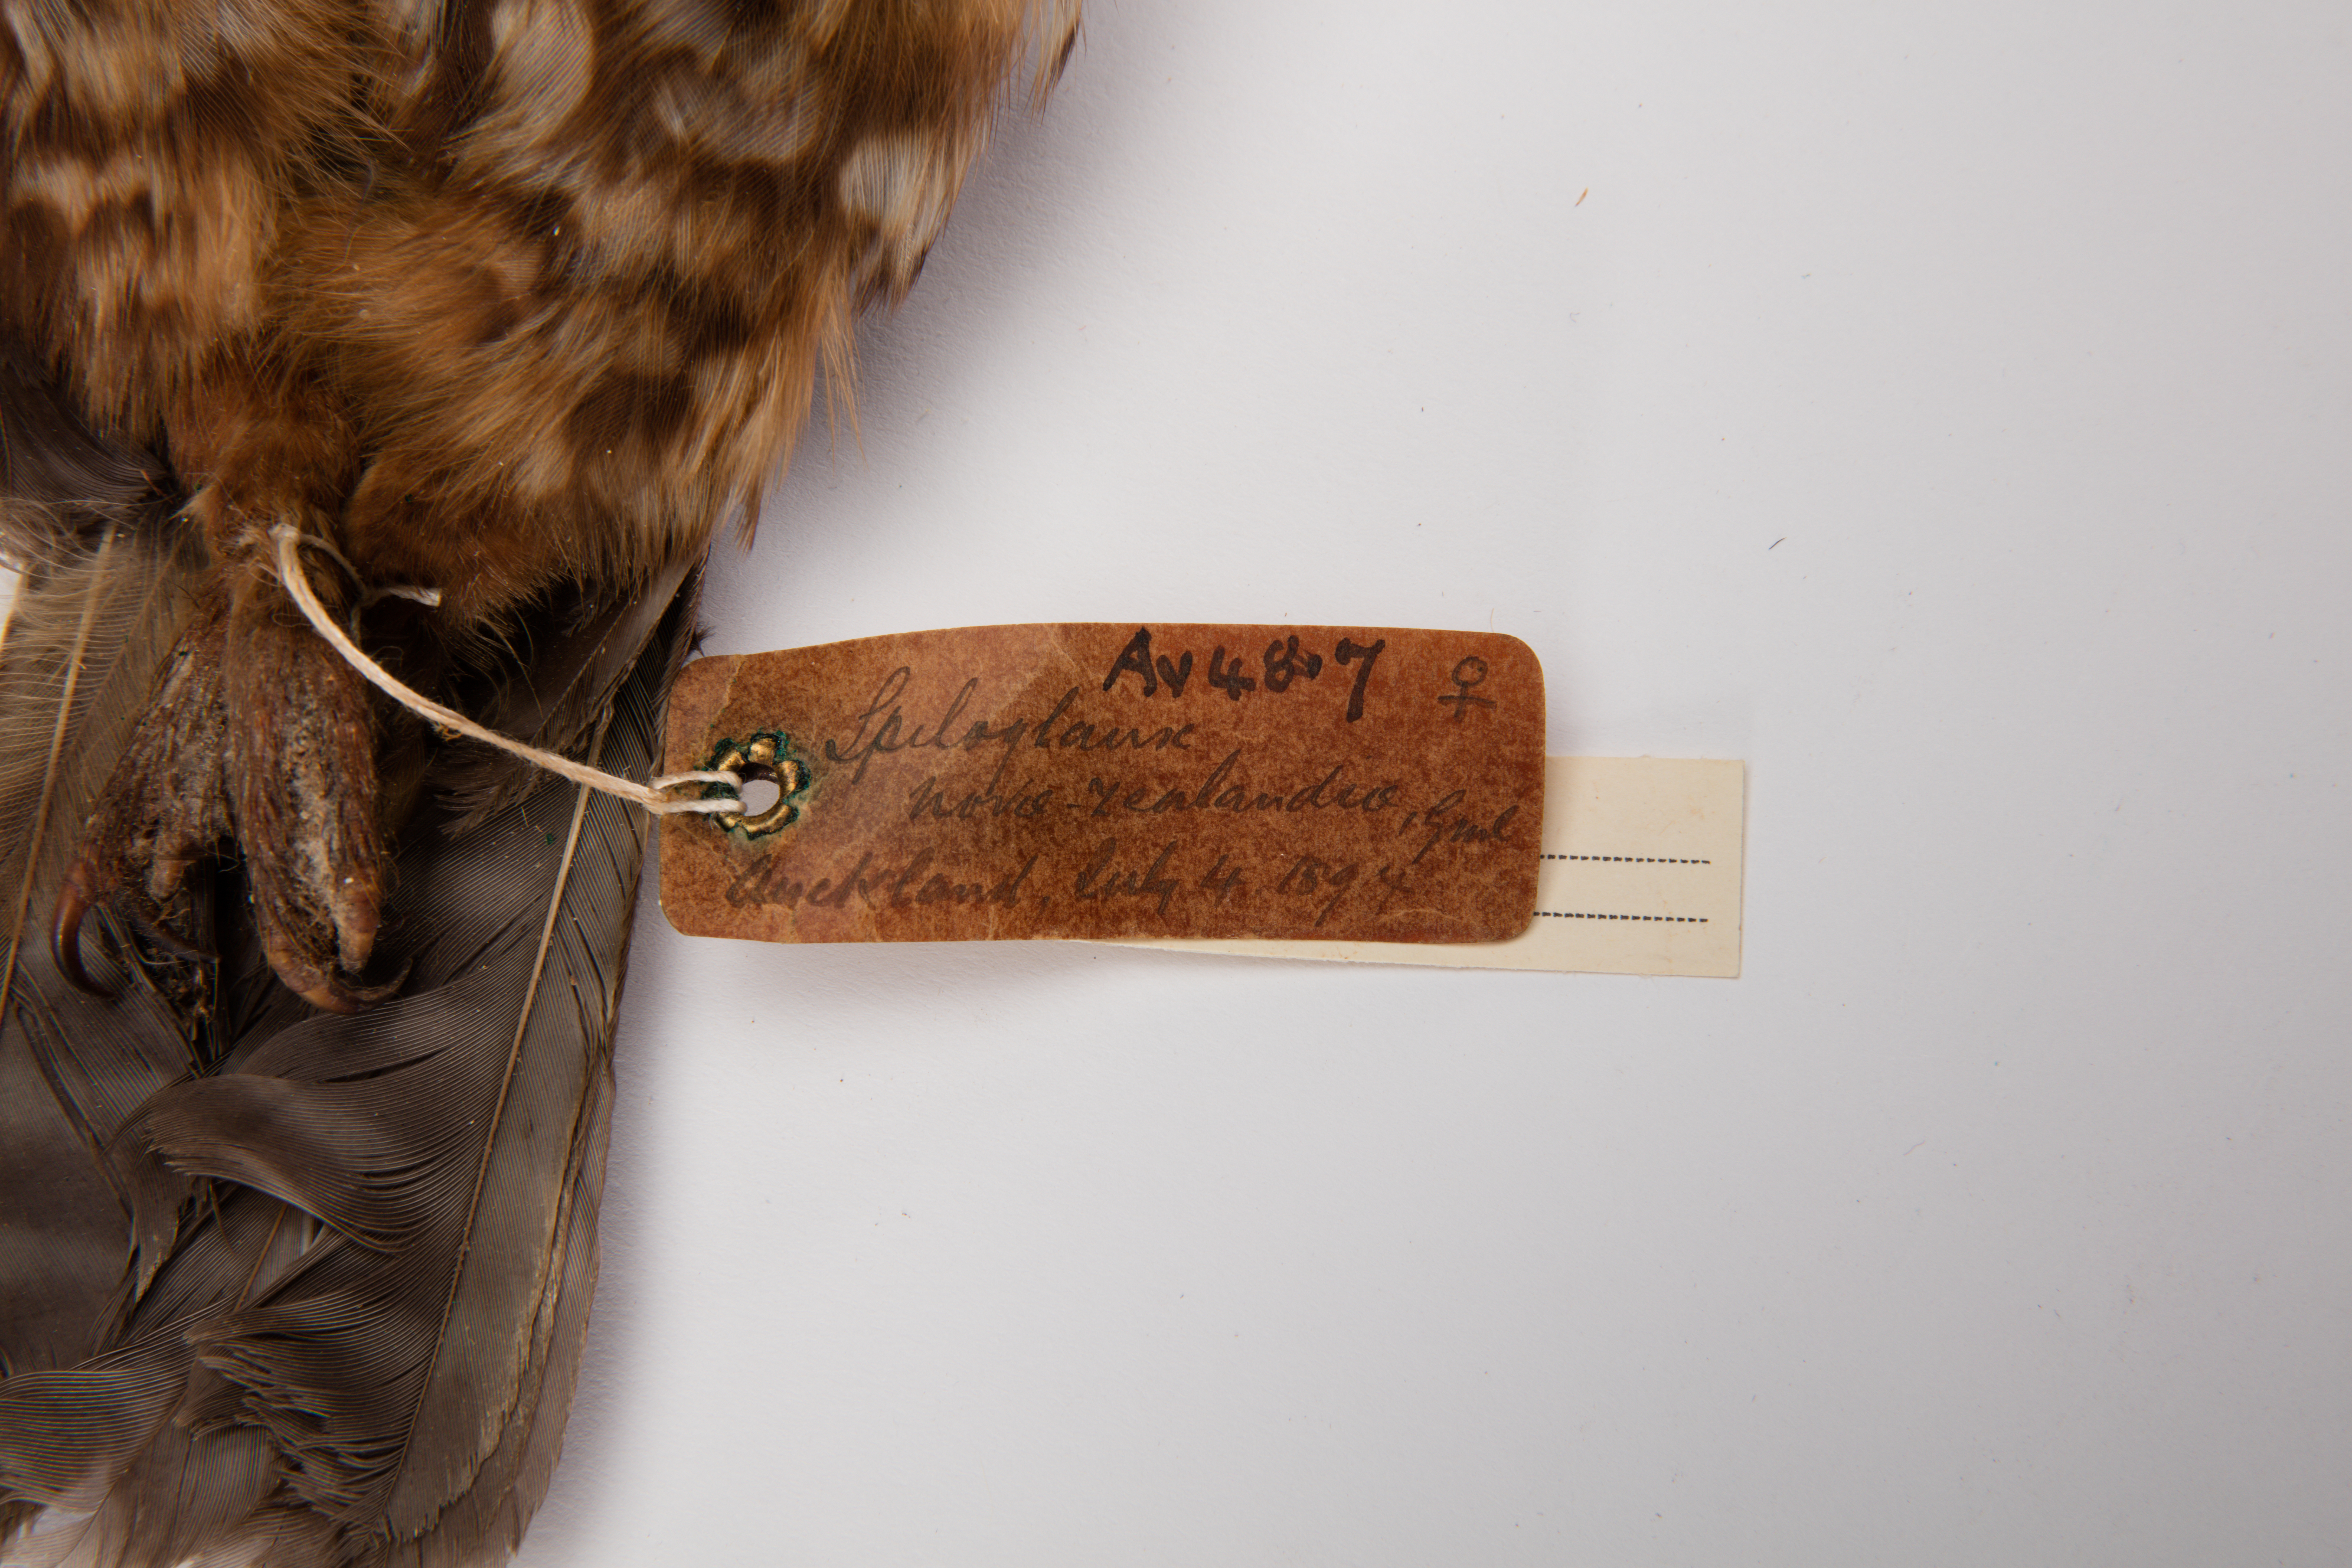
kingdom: Animalia
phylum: Chordata
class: Aves
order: Strigiformes
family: Strigidae
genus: Ninox
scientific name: Ninox novaeseelandiae
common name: Morepork
